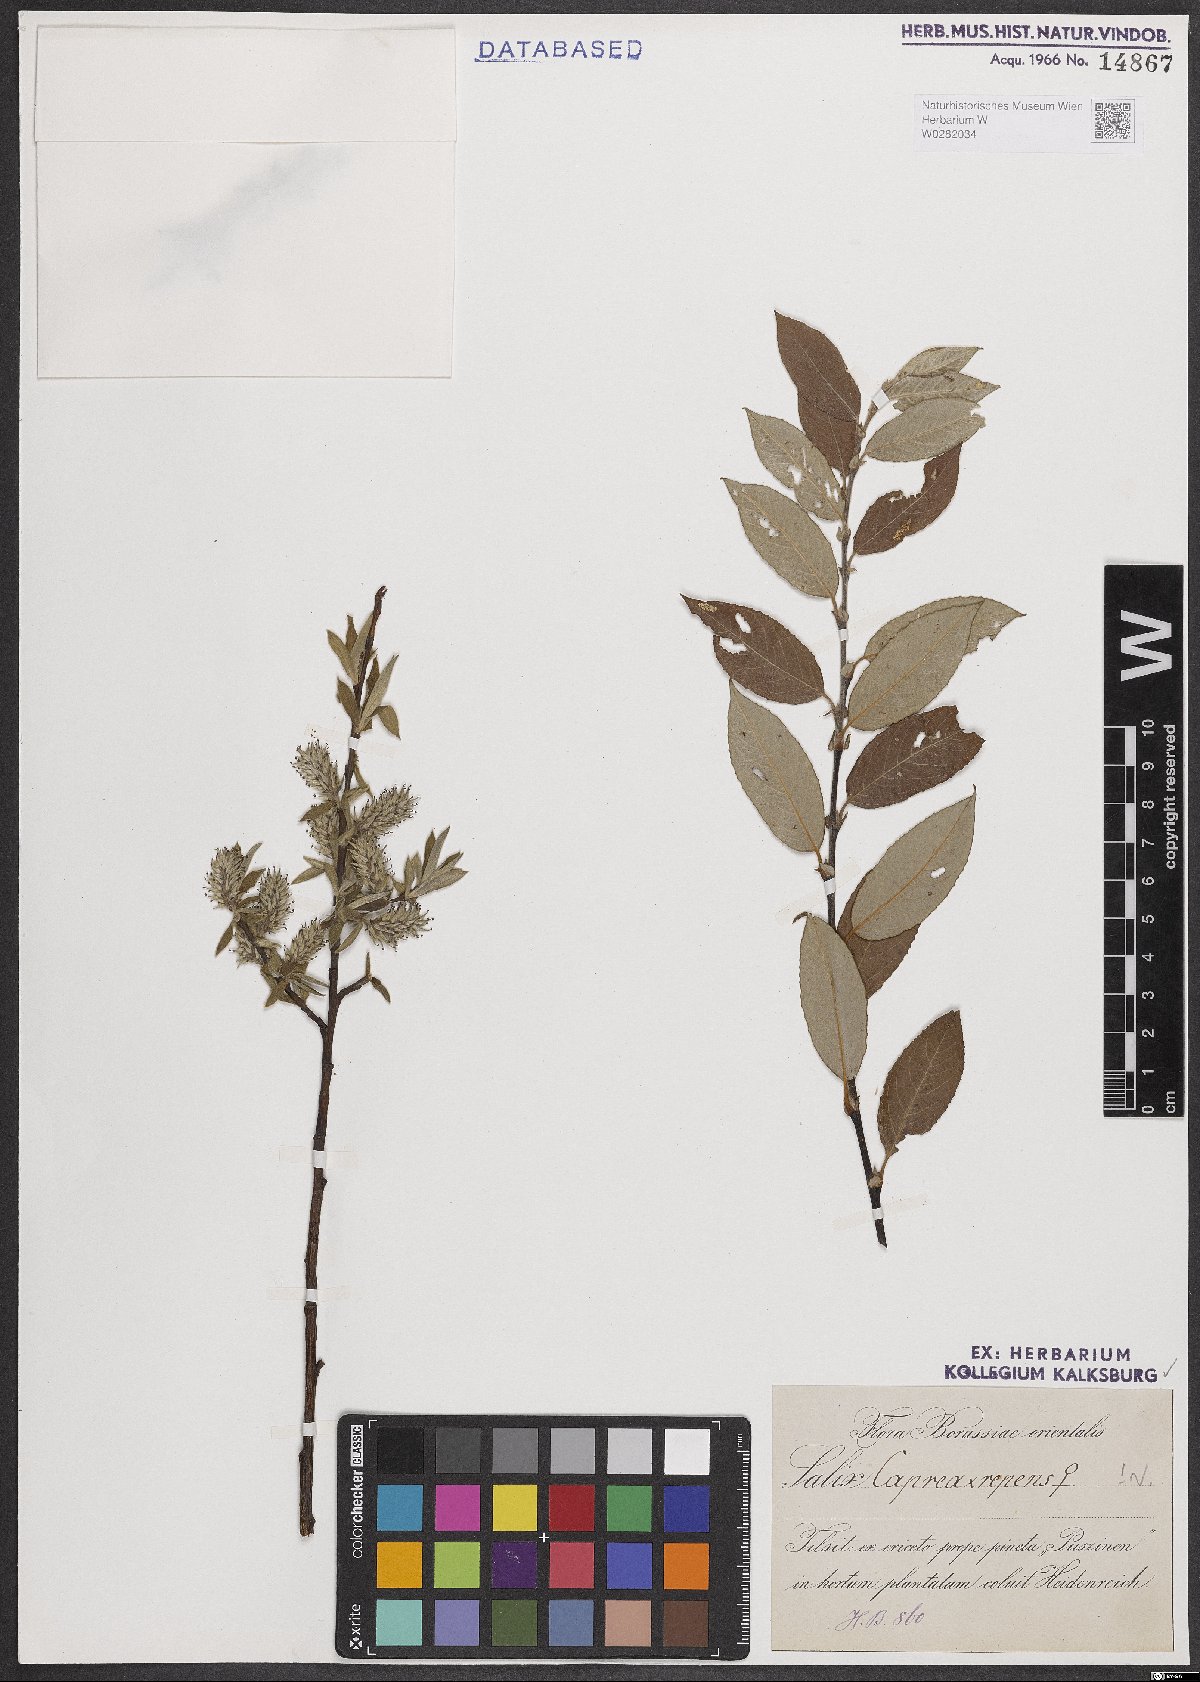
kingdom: Plantae
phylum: Tracheophyta
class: Magnoliopsida
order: Malpighiales
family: Salicaceae
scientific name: Salicaceae
